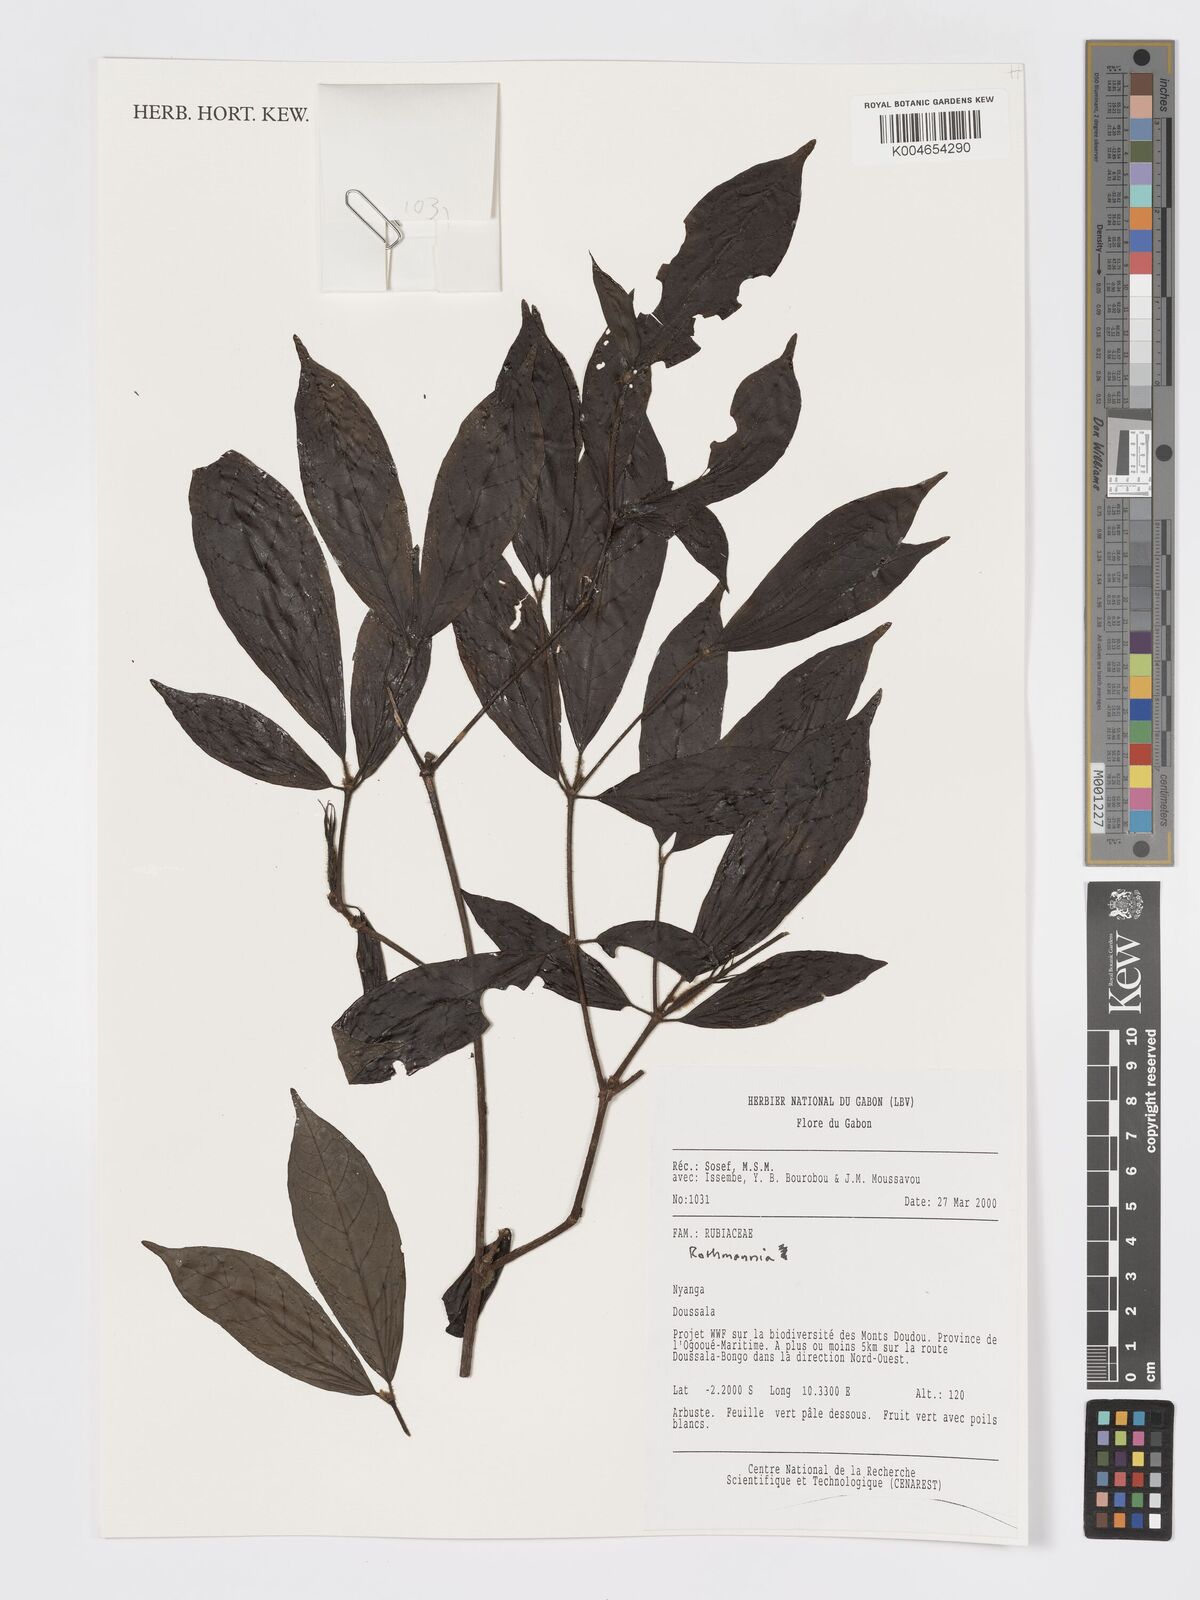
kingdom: Plantae
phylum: Tracheophyta
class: Magnoliopsida
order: Gentianales
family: Rubiaceae
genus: Rothmannia
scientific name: Rothmannia hispida
